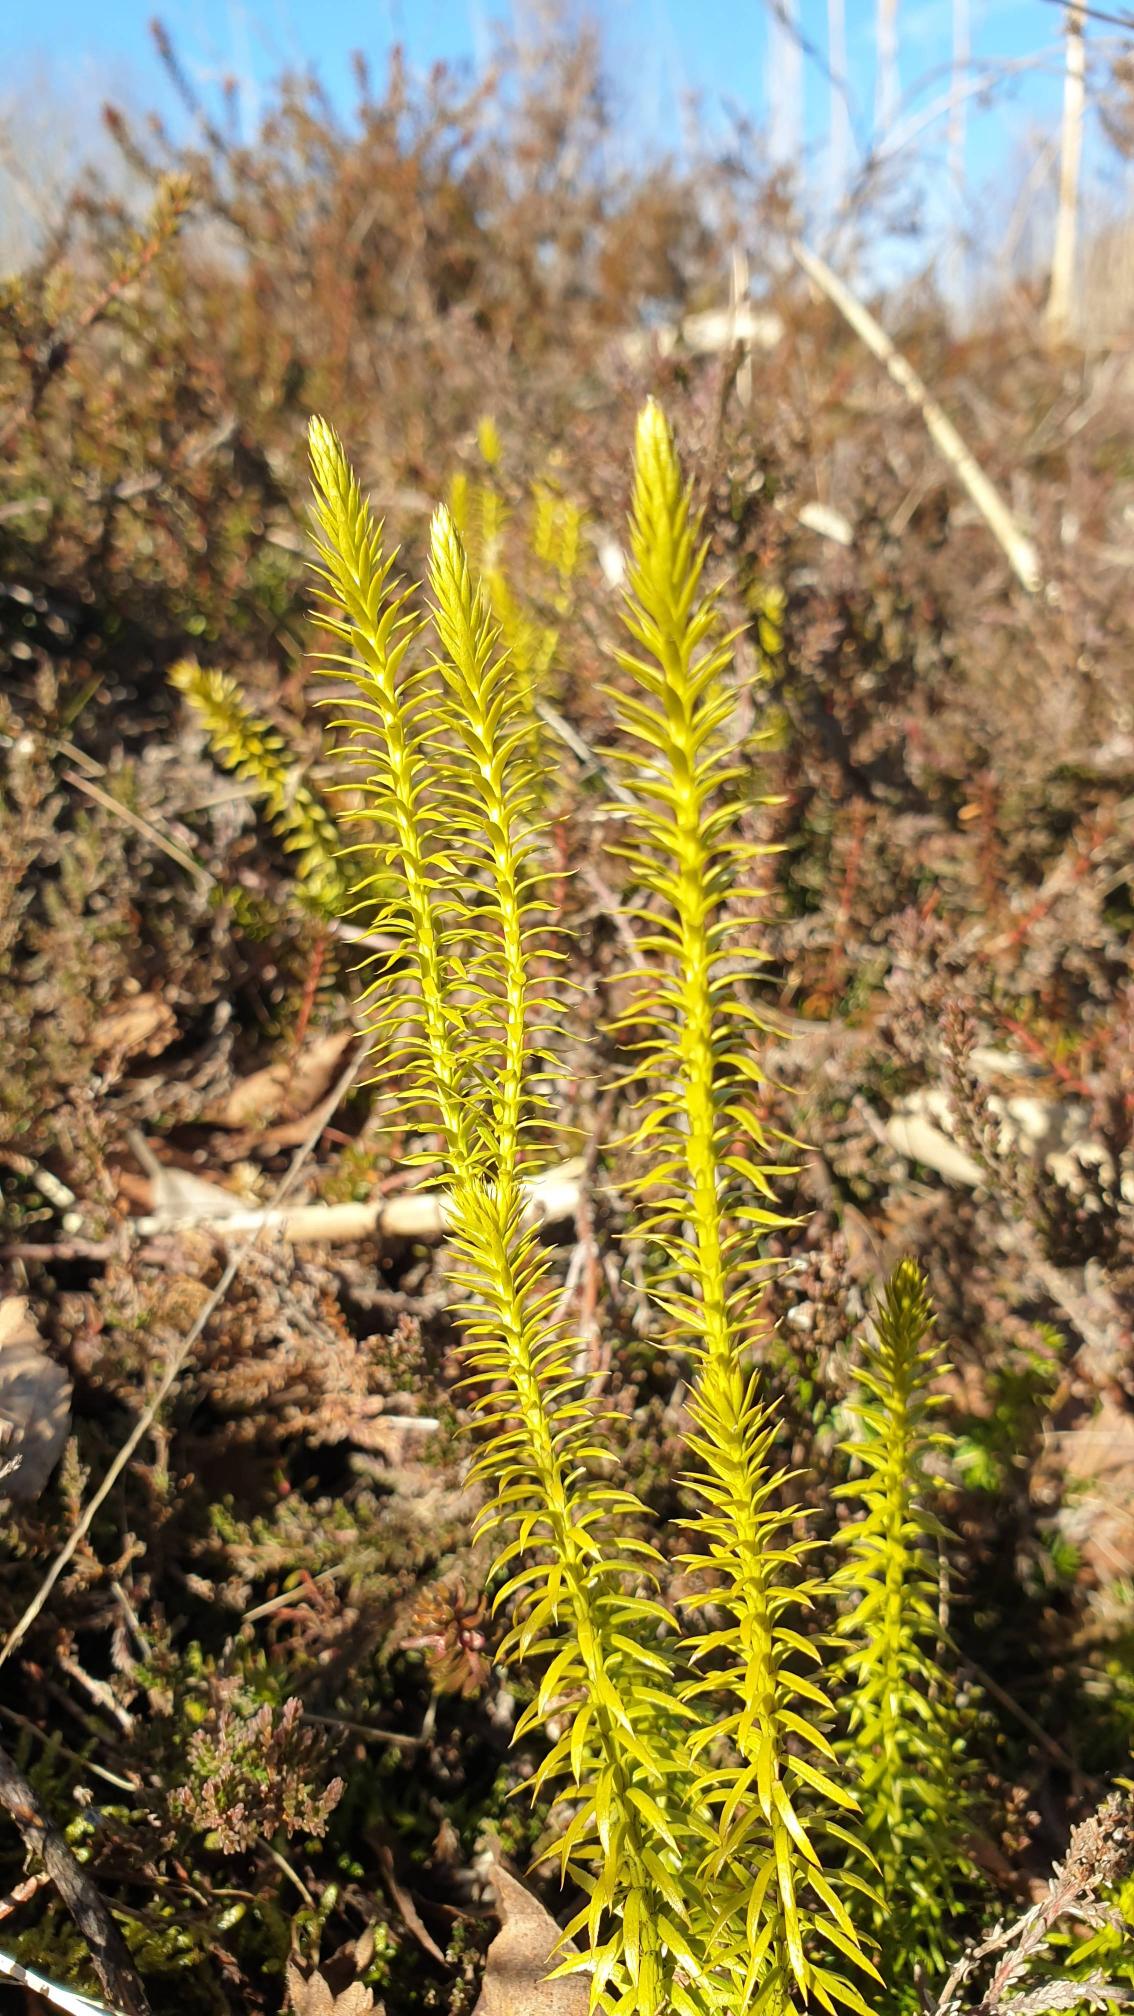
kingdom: Plantae
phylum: Tracheophyta
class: Lycopodiopsida
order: Lycopodiales
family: Lycopodiaceae
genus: Spinulum
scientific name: Spinulum annotinum
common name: Femradet ulvefod
